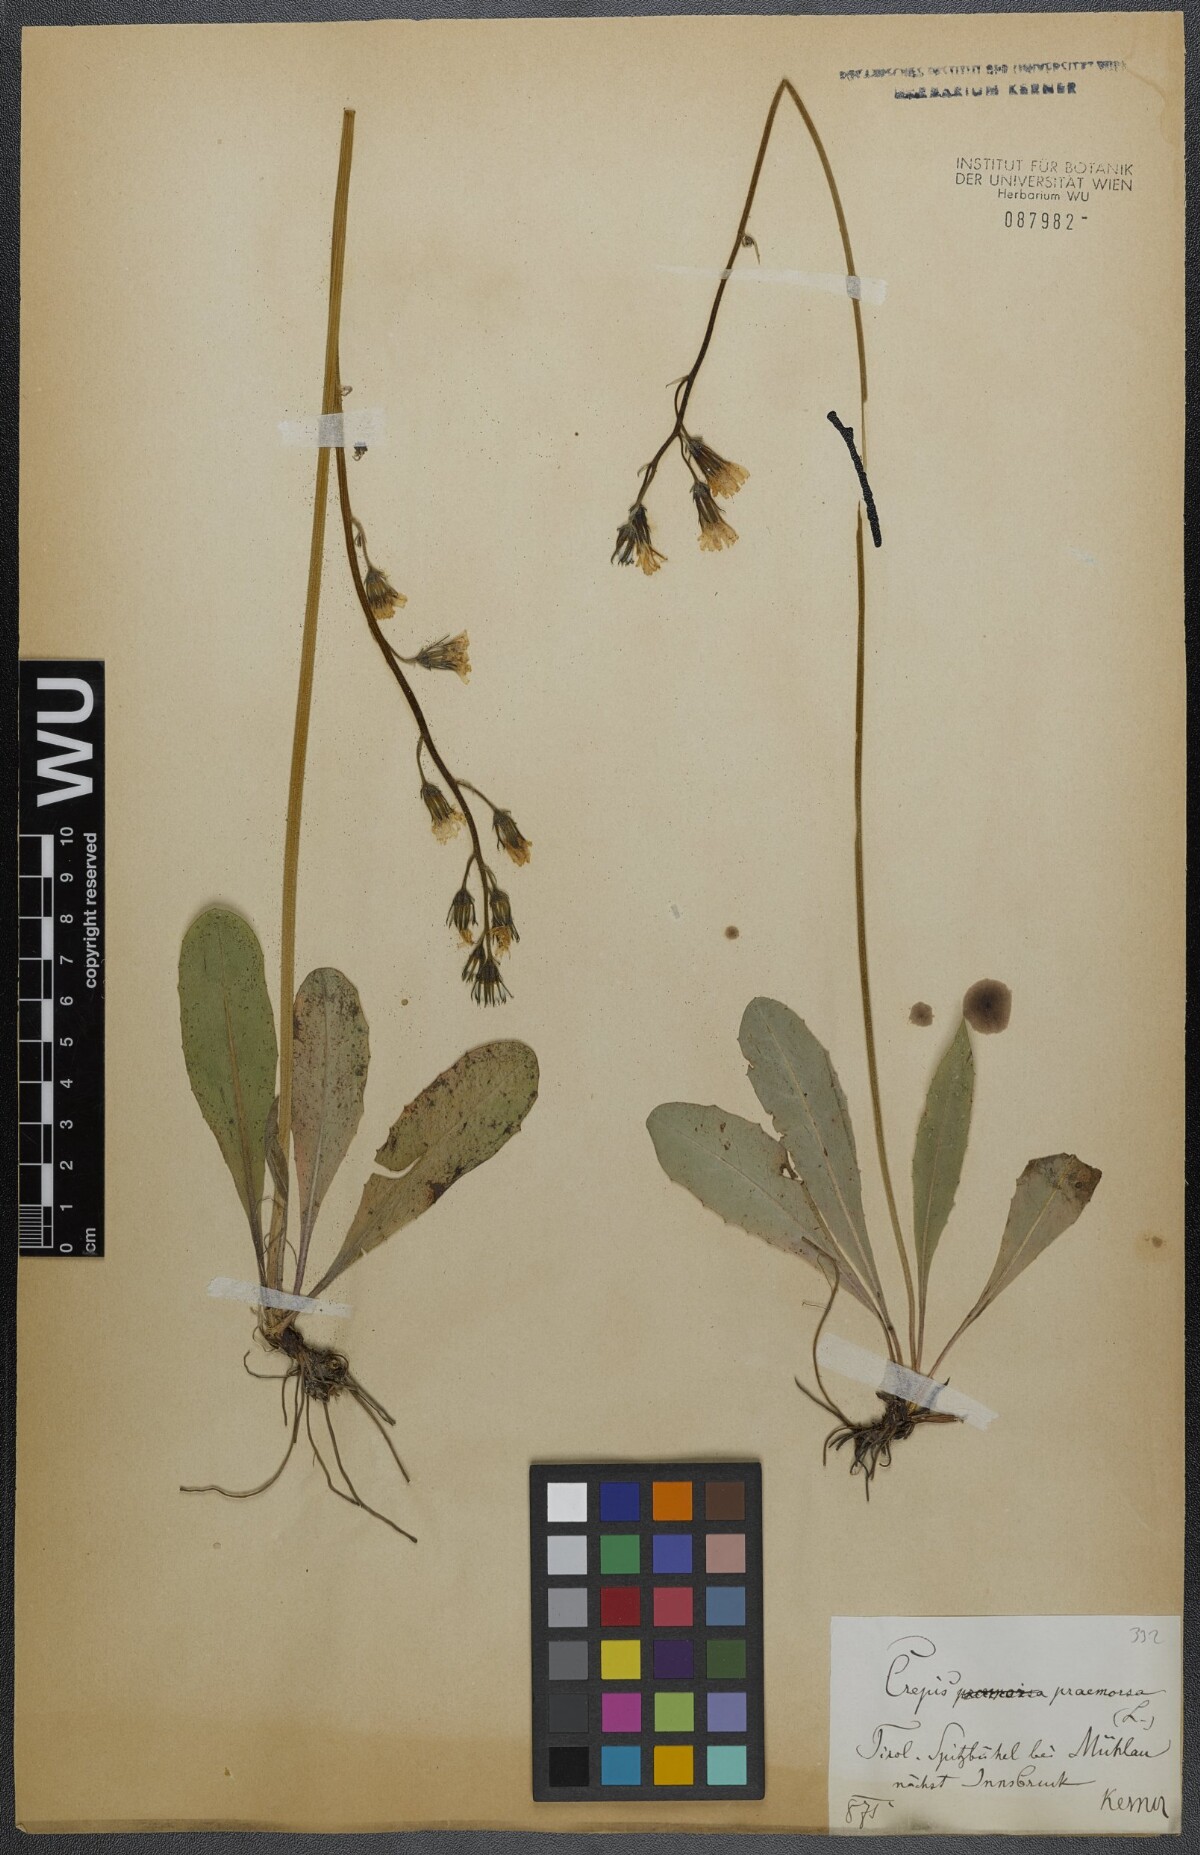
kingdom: Plantae
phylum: Tracheophyta
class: Magnoliopsida
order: Asterales
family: Asteraceae
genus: Crepis
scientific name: Crepis praemorsa
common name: Leafless hawk's-beard
